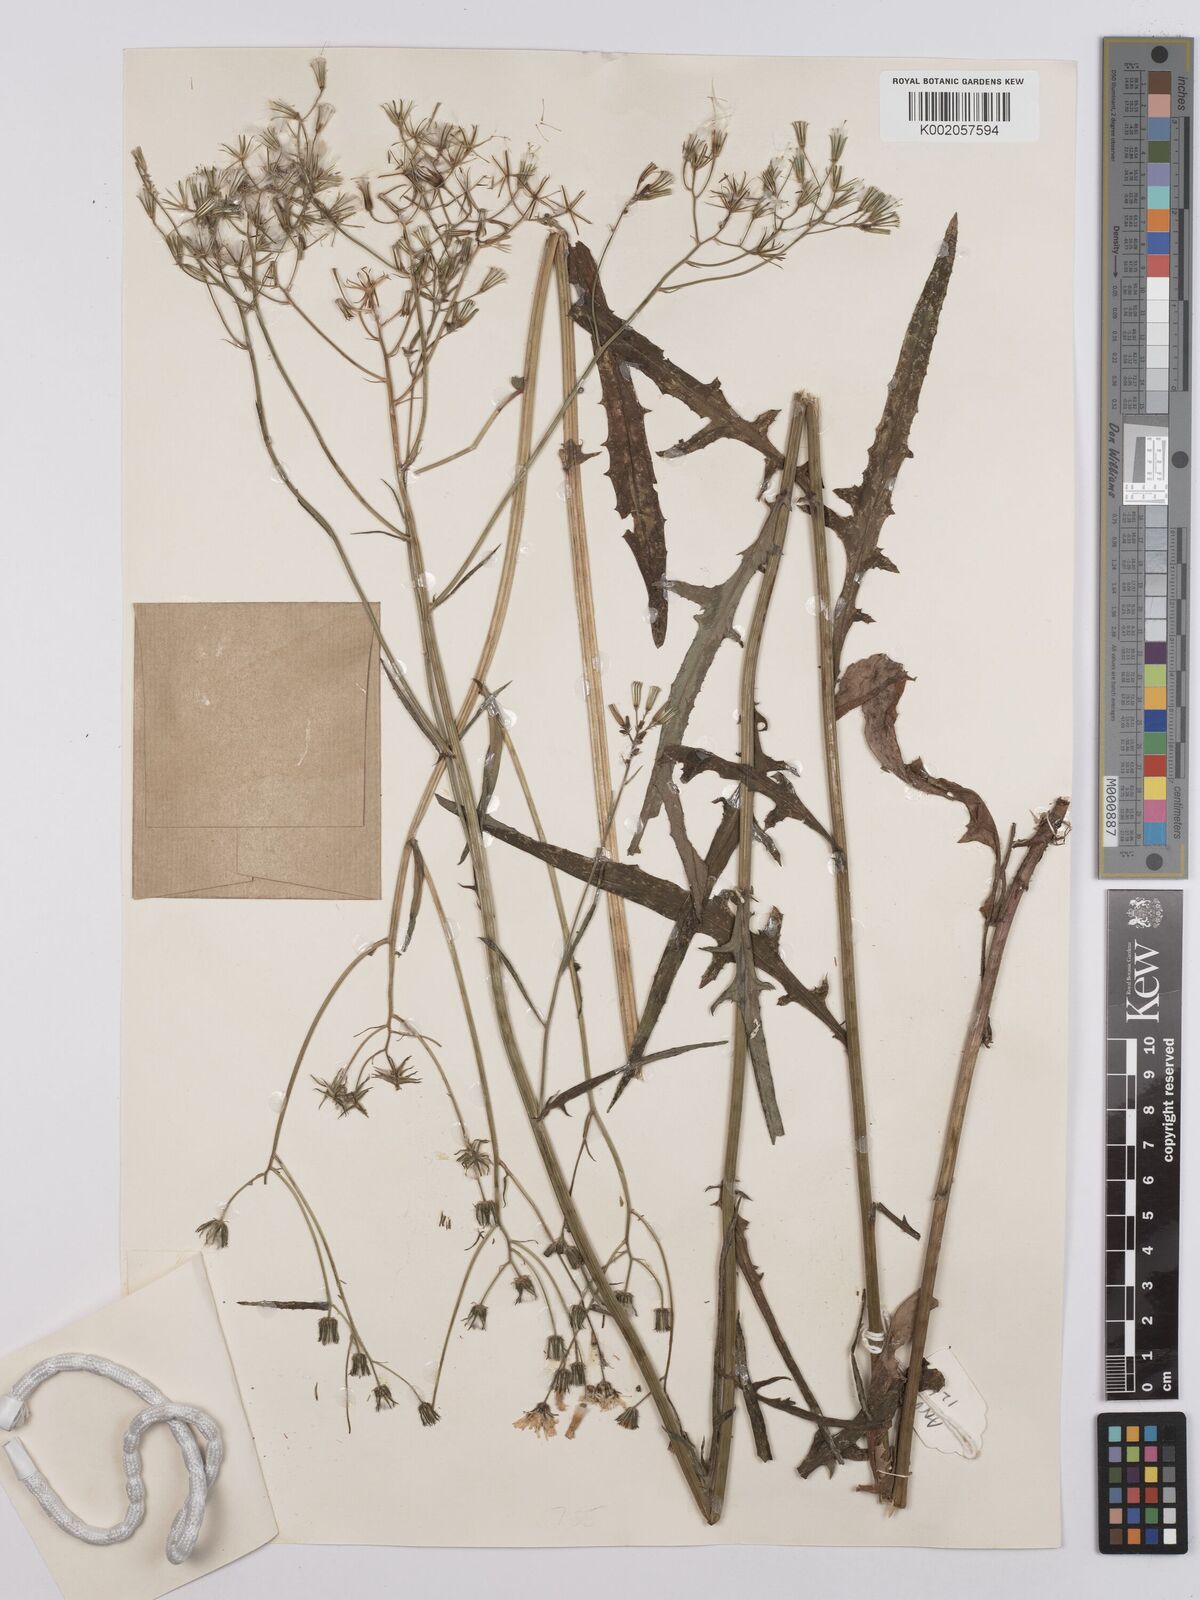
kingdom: Plantae
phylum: Tracheophyta
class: Magnoliopsida
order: Asterales
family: Asteraceae
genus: Crepis
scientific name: Crepis capillaris
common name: Smooth hawksbeard
